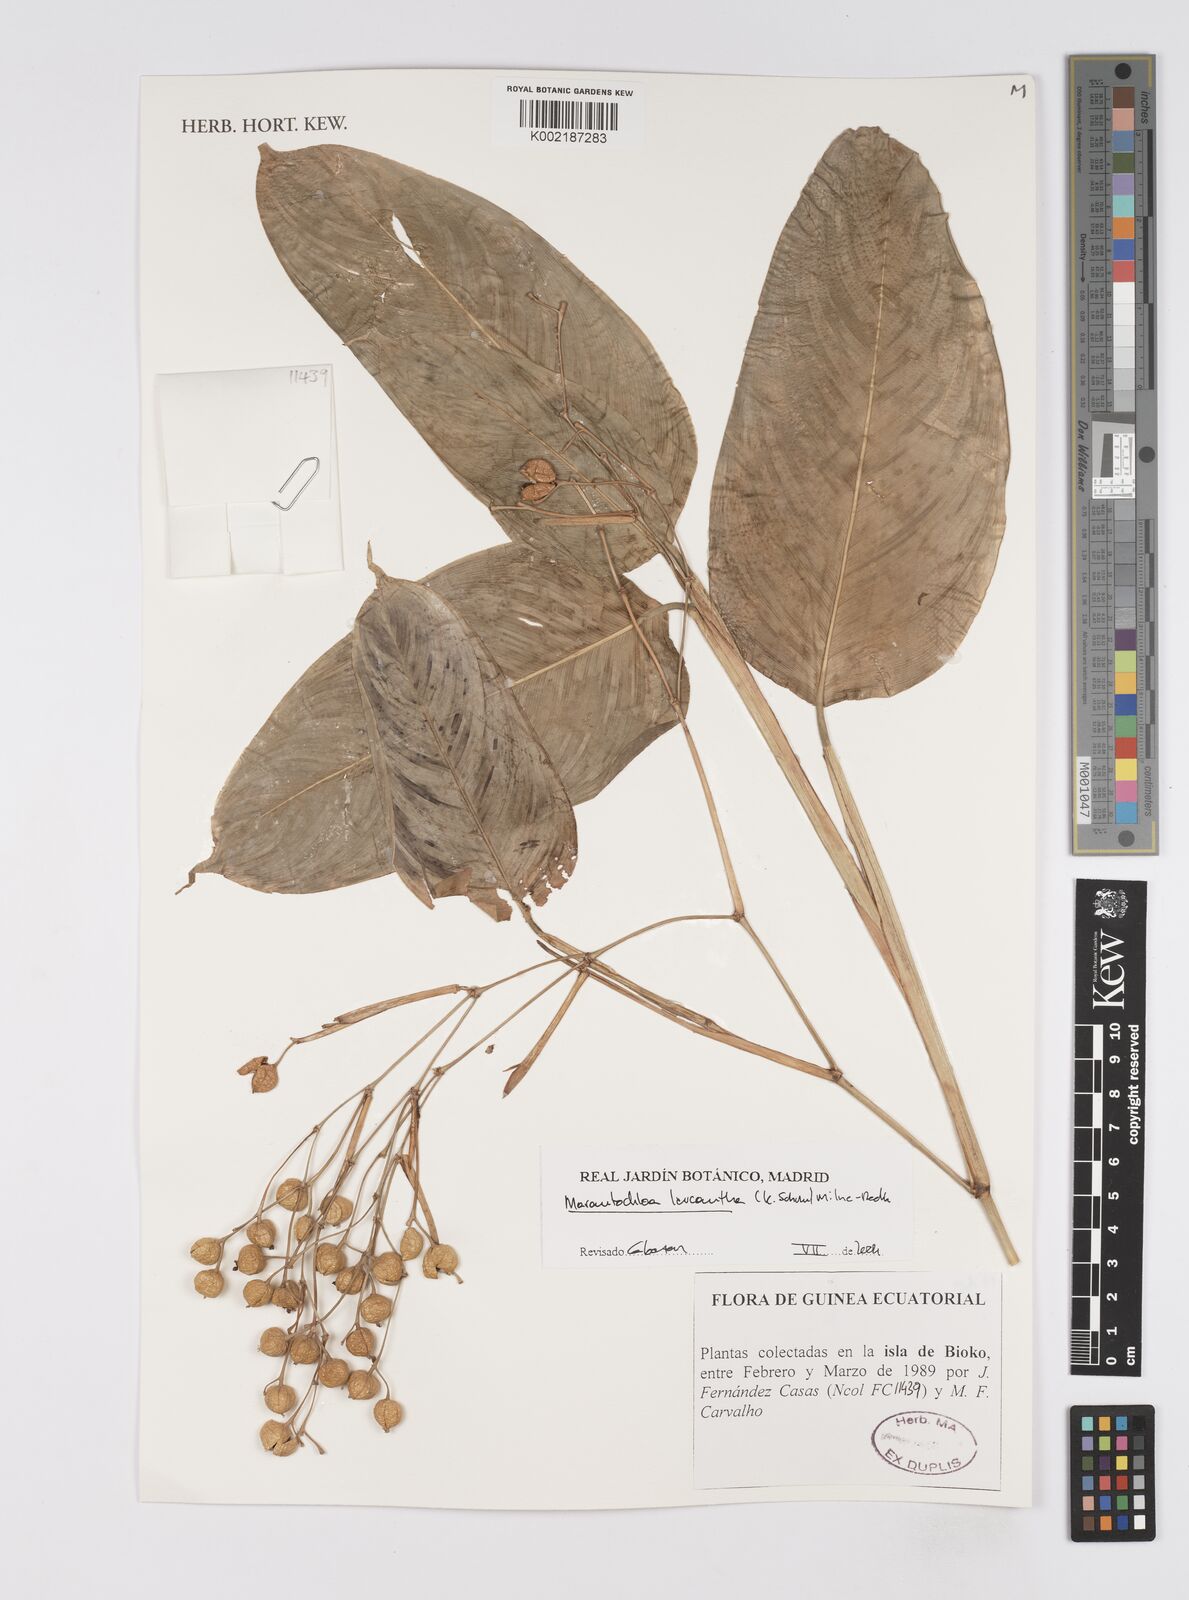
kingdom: Plantae
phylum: Tracheophyta
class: Liliopsida
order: Zingiberales
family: Marantaceae
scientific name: Marantaceae
